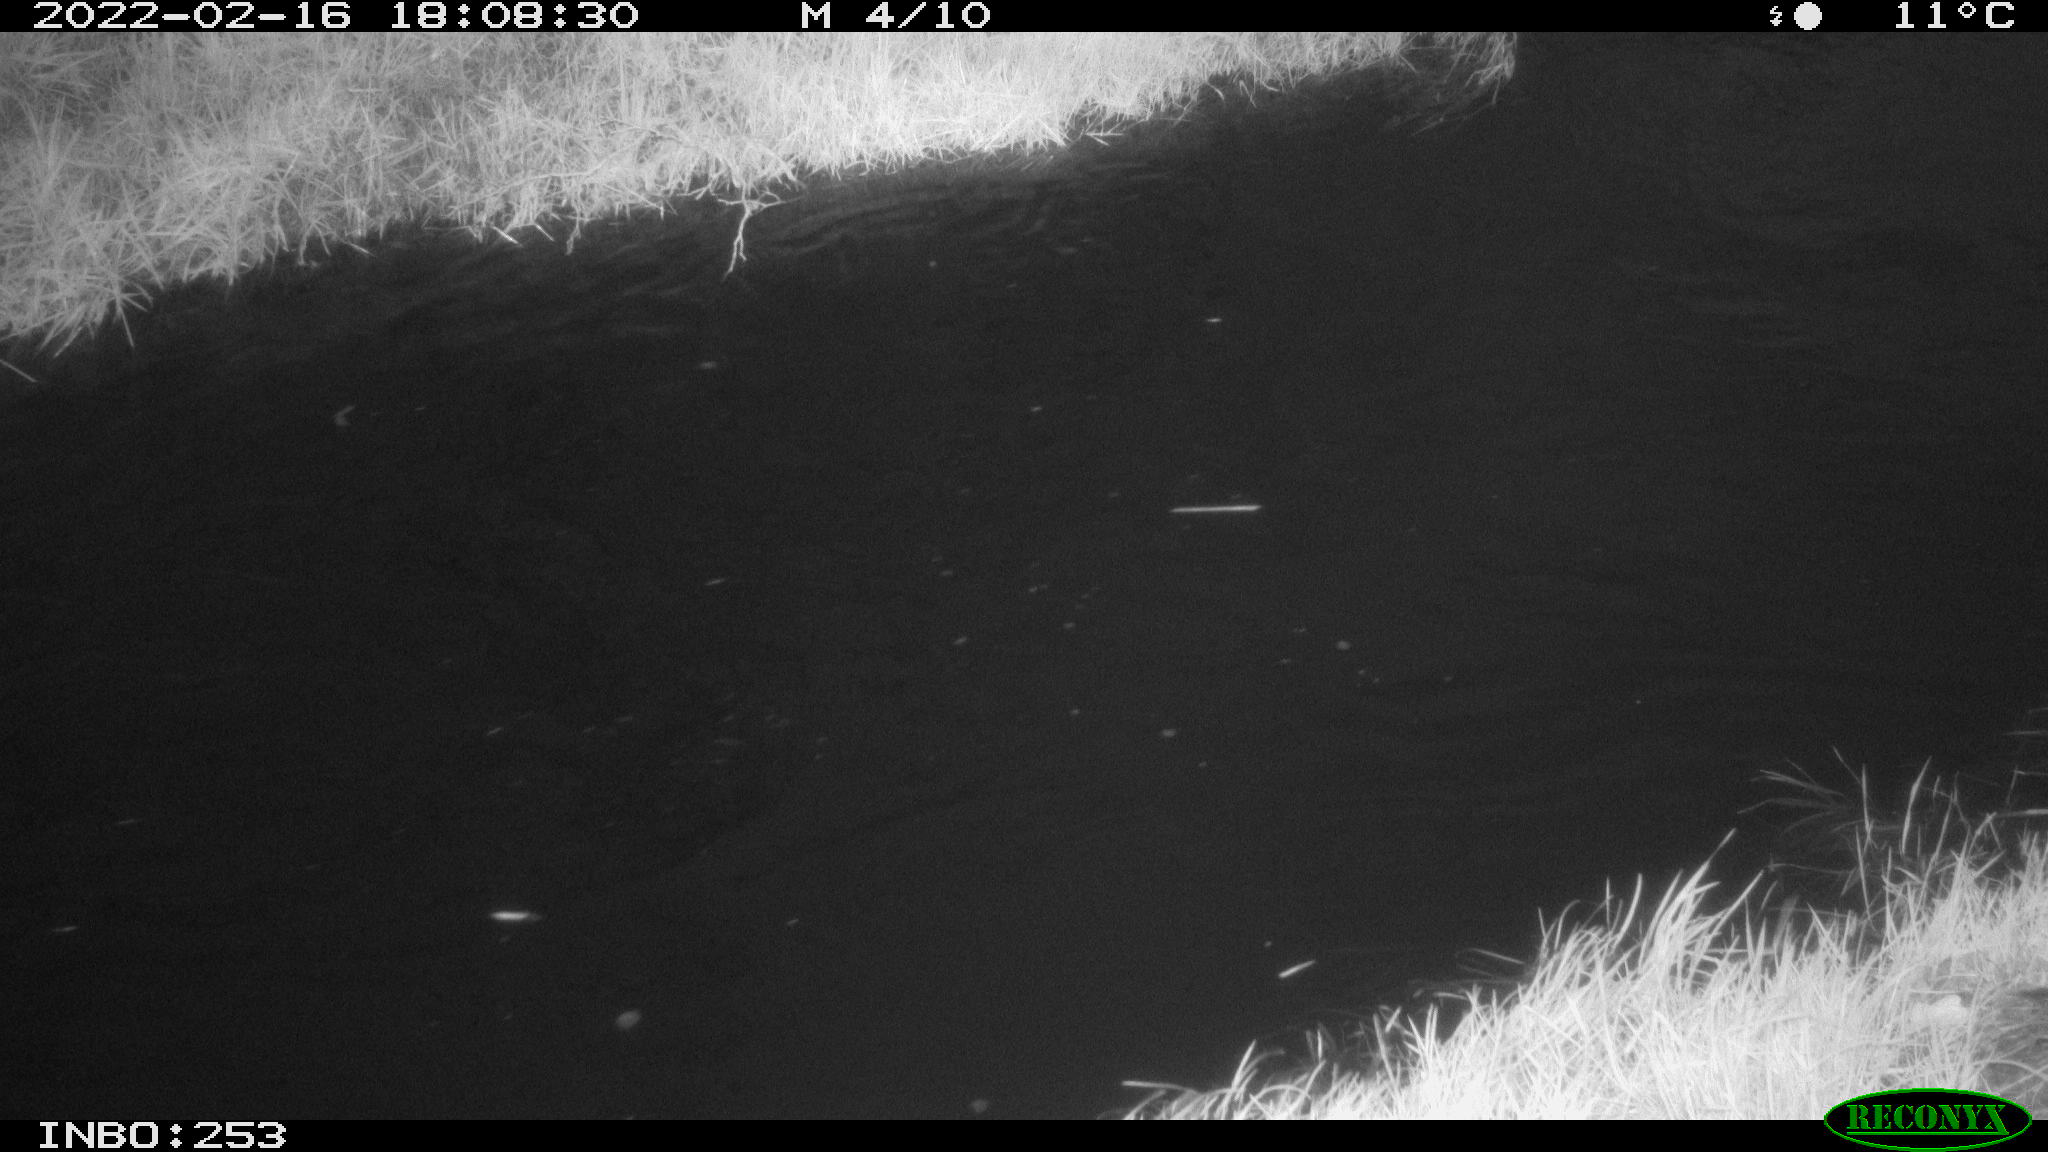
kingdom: Animalia
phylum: Chordata
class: Aves
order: Anseriformes
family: Anatidae
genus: Anas
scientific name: Anas platyrhynchos
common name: Mallard
